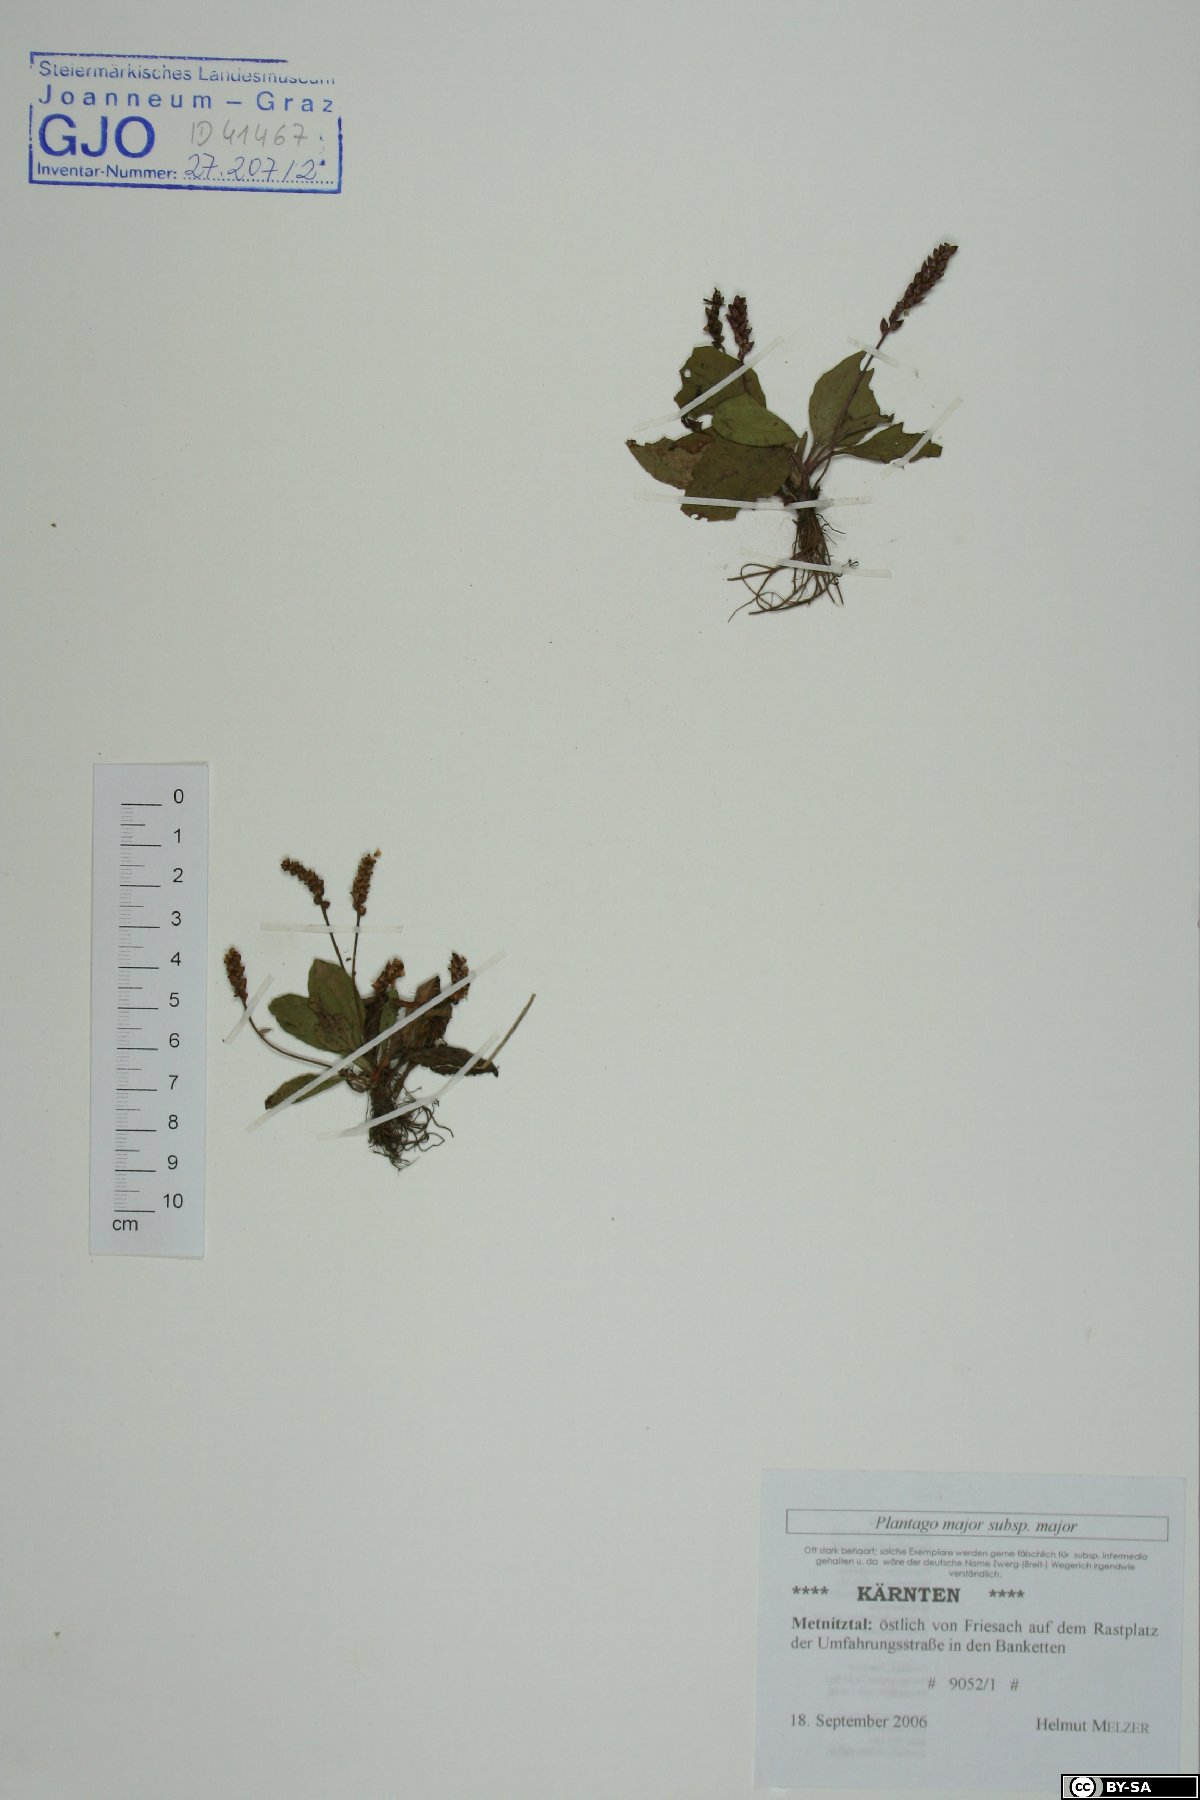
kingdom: Plantae
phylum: Tracheophyta
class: Magnoliopsida
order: Lamiales
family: Plantaginaceae
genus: Plantago
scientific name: Plantago major
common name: Common plantain
